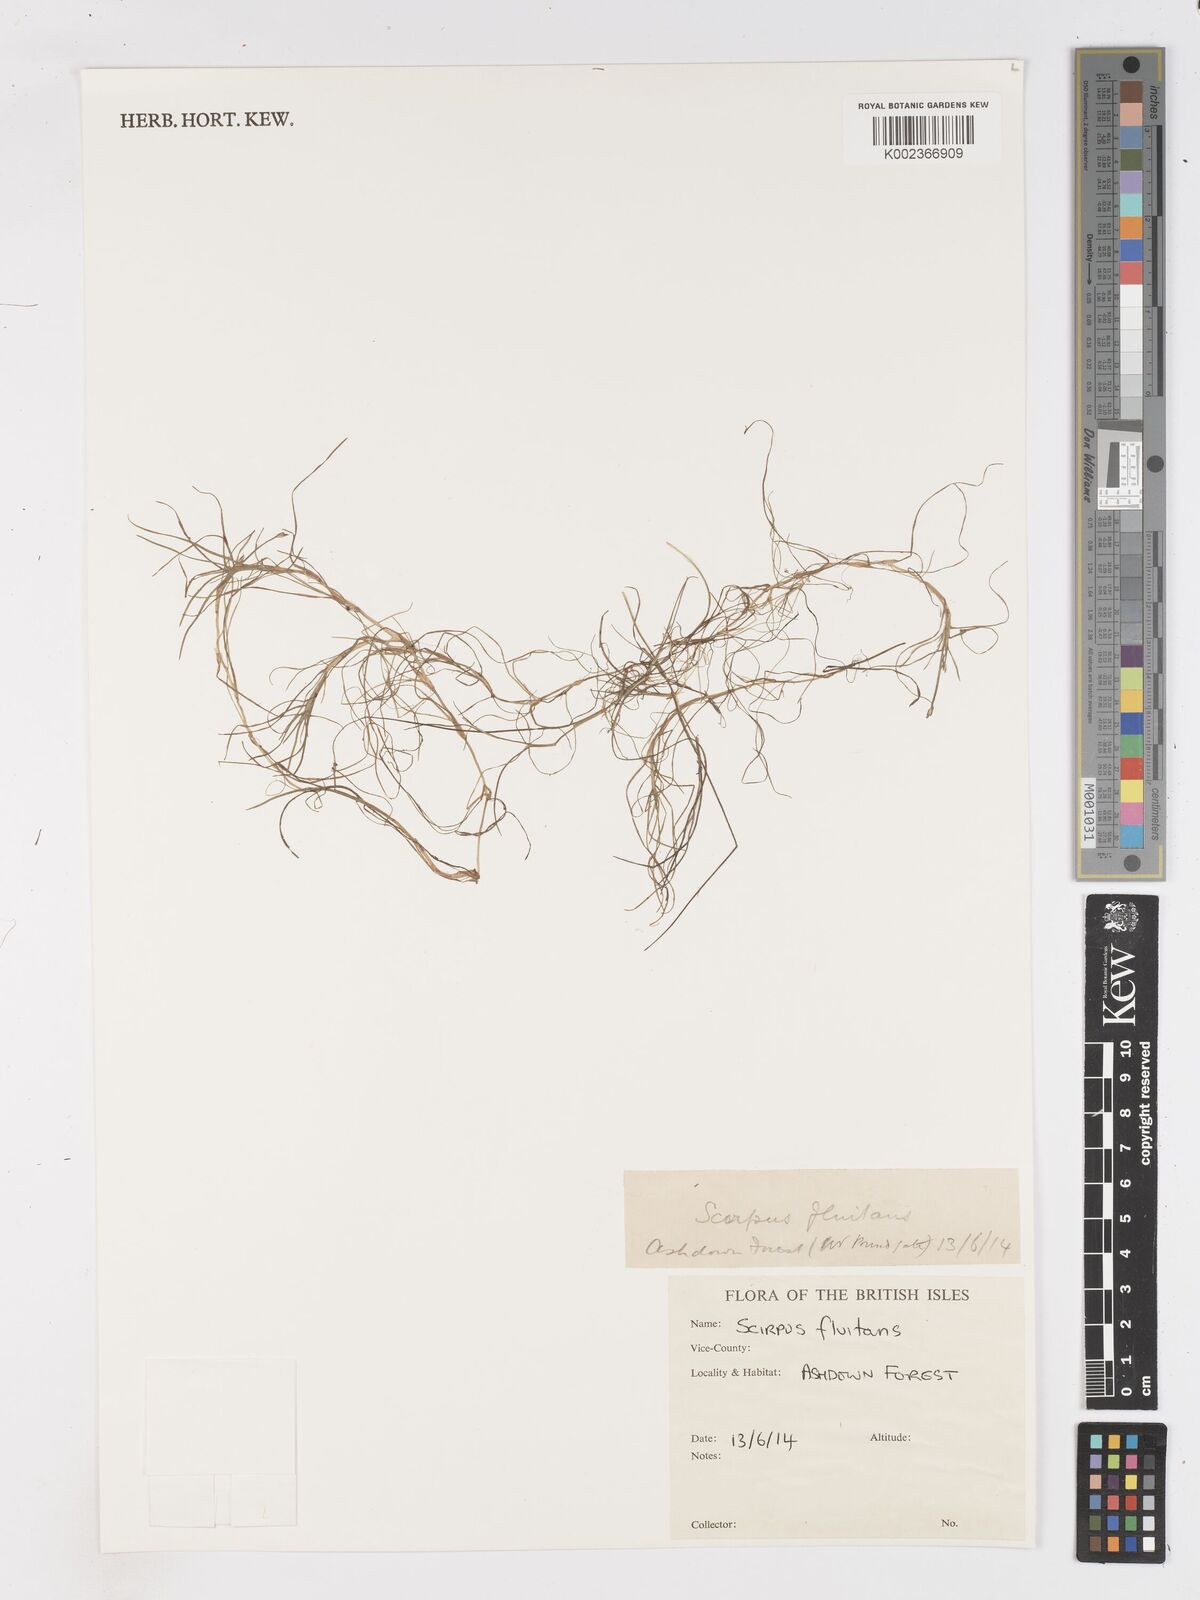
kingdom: Plantae
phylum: Tracheophyta
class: Liliopsida
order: Poales
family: Cyperaceae
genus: Isolepis
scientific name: Isolepis fluitans
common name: Floating club-rush
